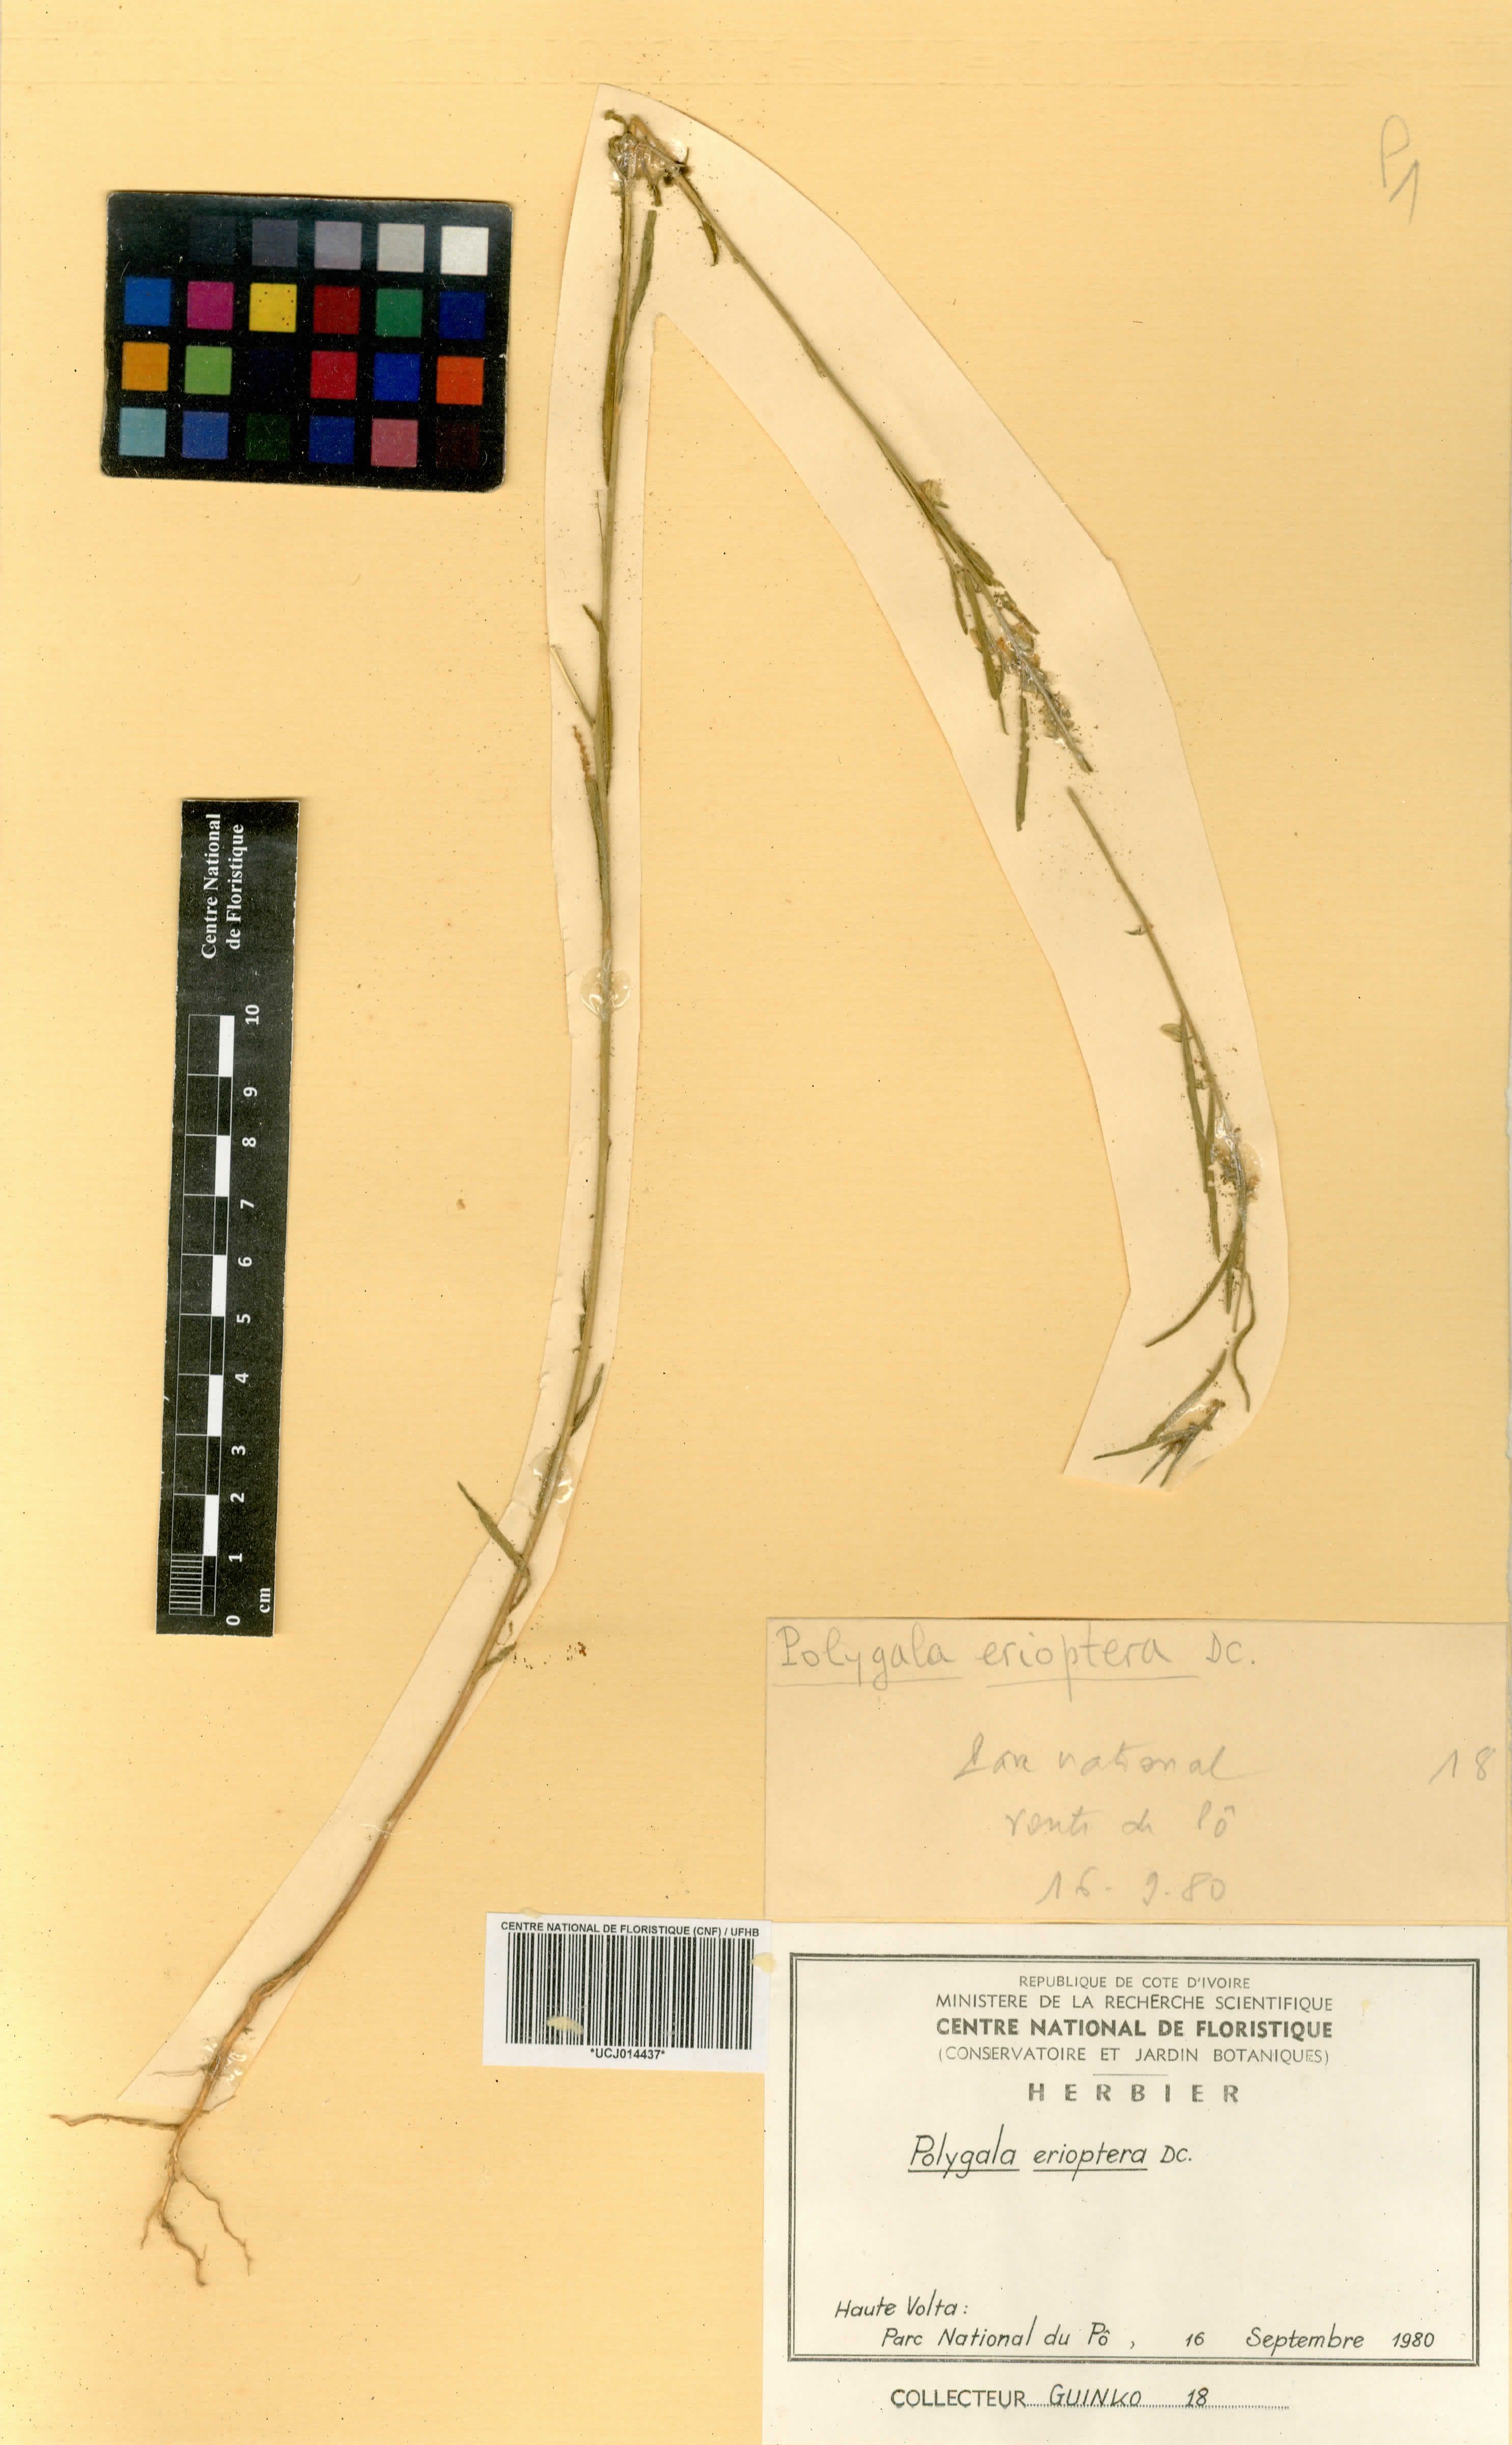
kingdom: Plantae
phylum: Tracheophyta
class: Magnoliopsida
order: Fabales
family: Polygalaceae
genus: Polygala
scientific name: Polygala erioptera
